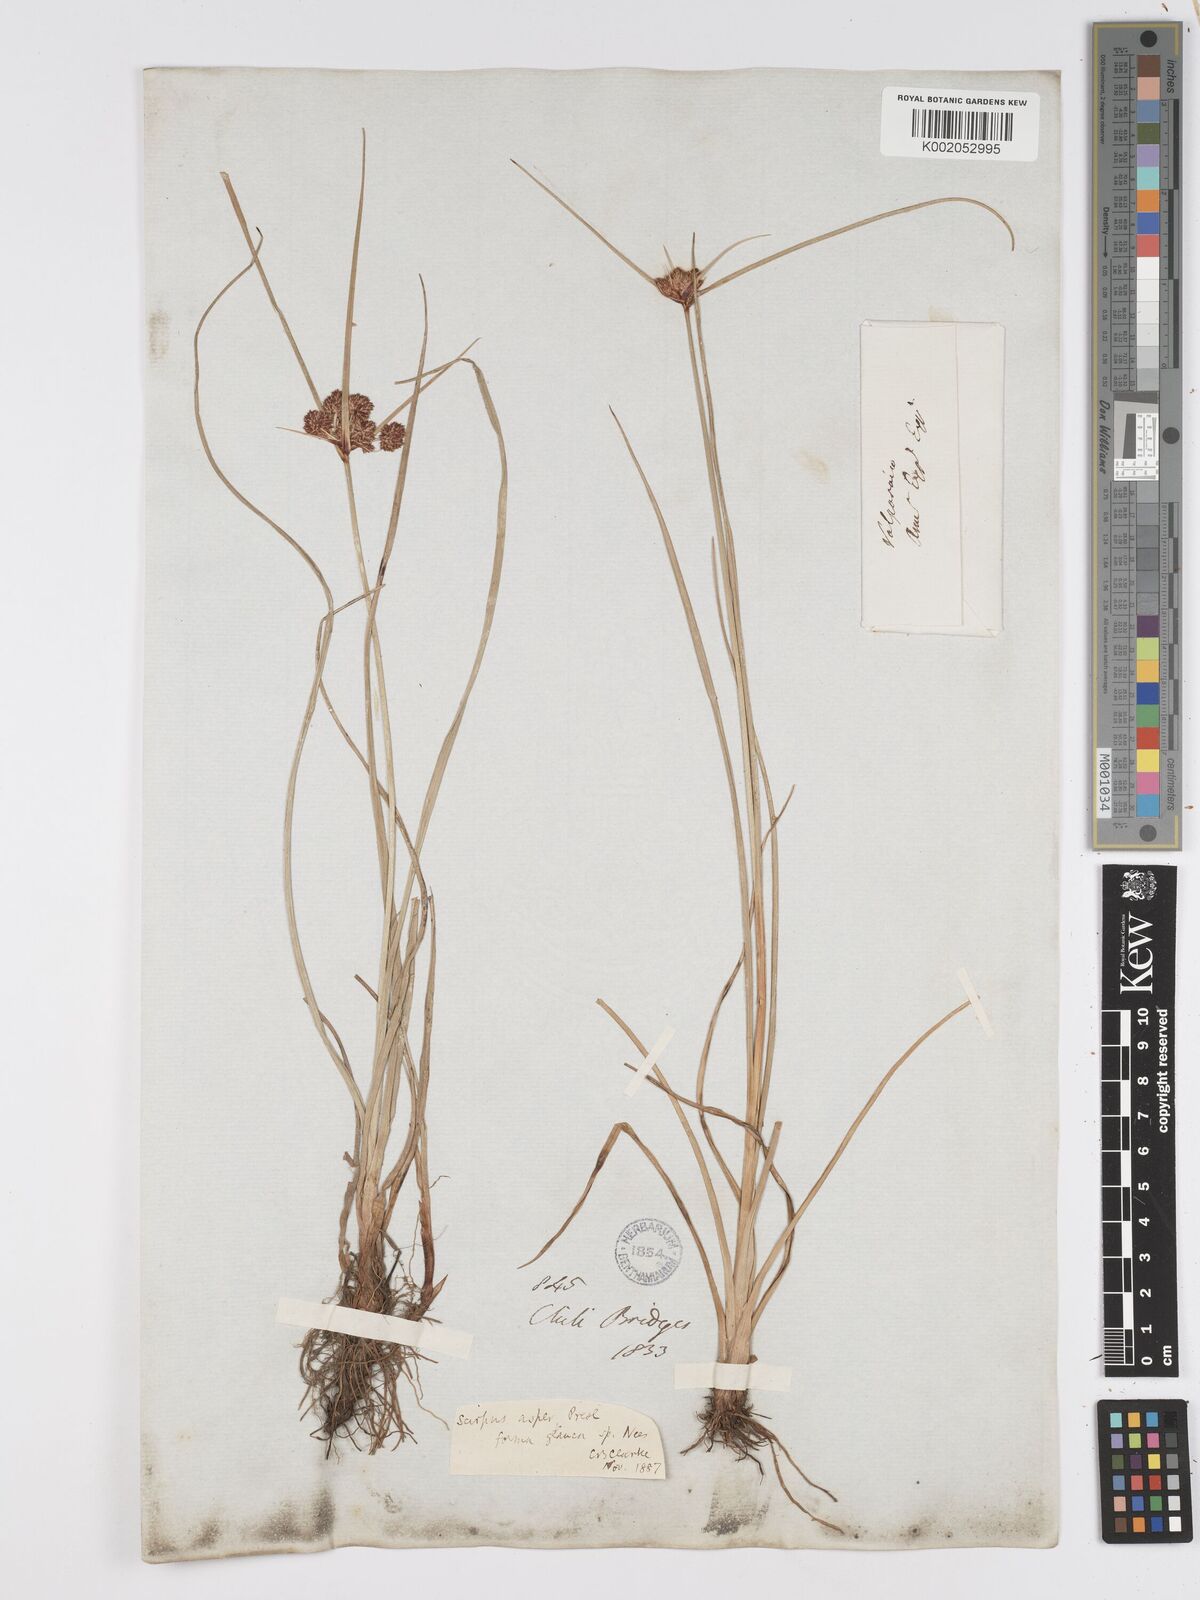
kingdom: Plantae
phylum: Tracheophyta
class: Liliopsida
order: Poales
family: Cyperaceae
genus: Rhodoscirpus
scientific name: Rhodoscirpus asper
